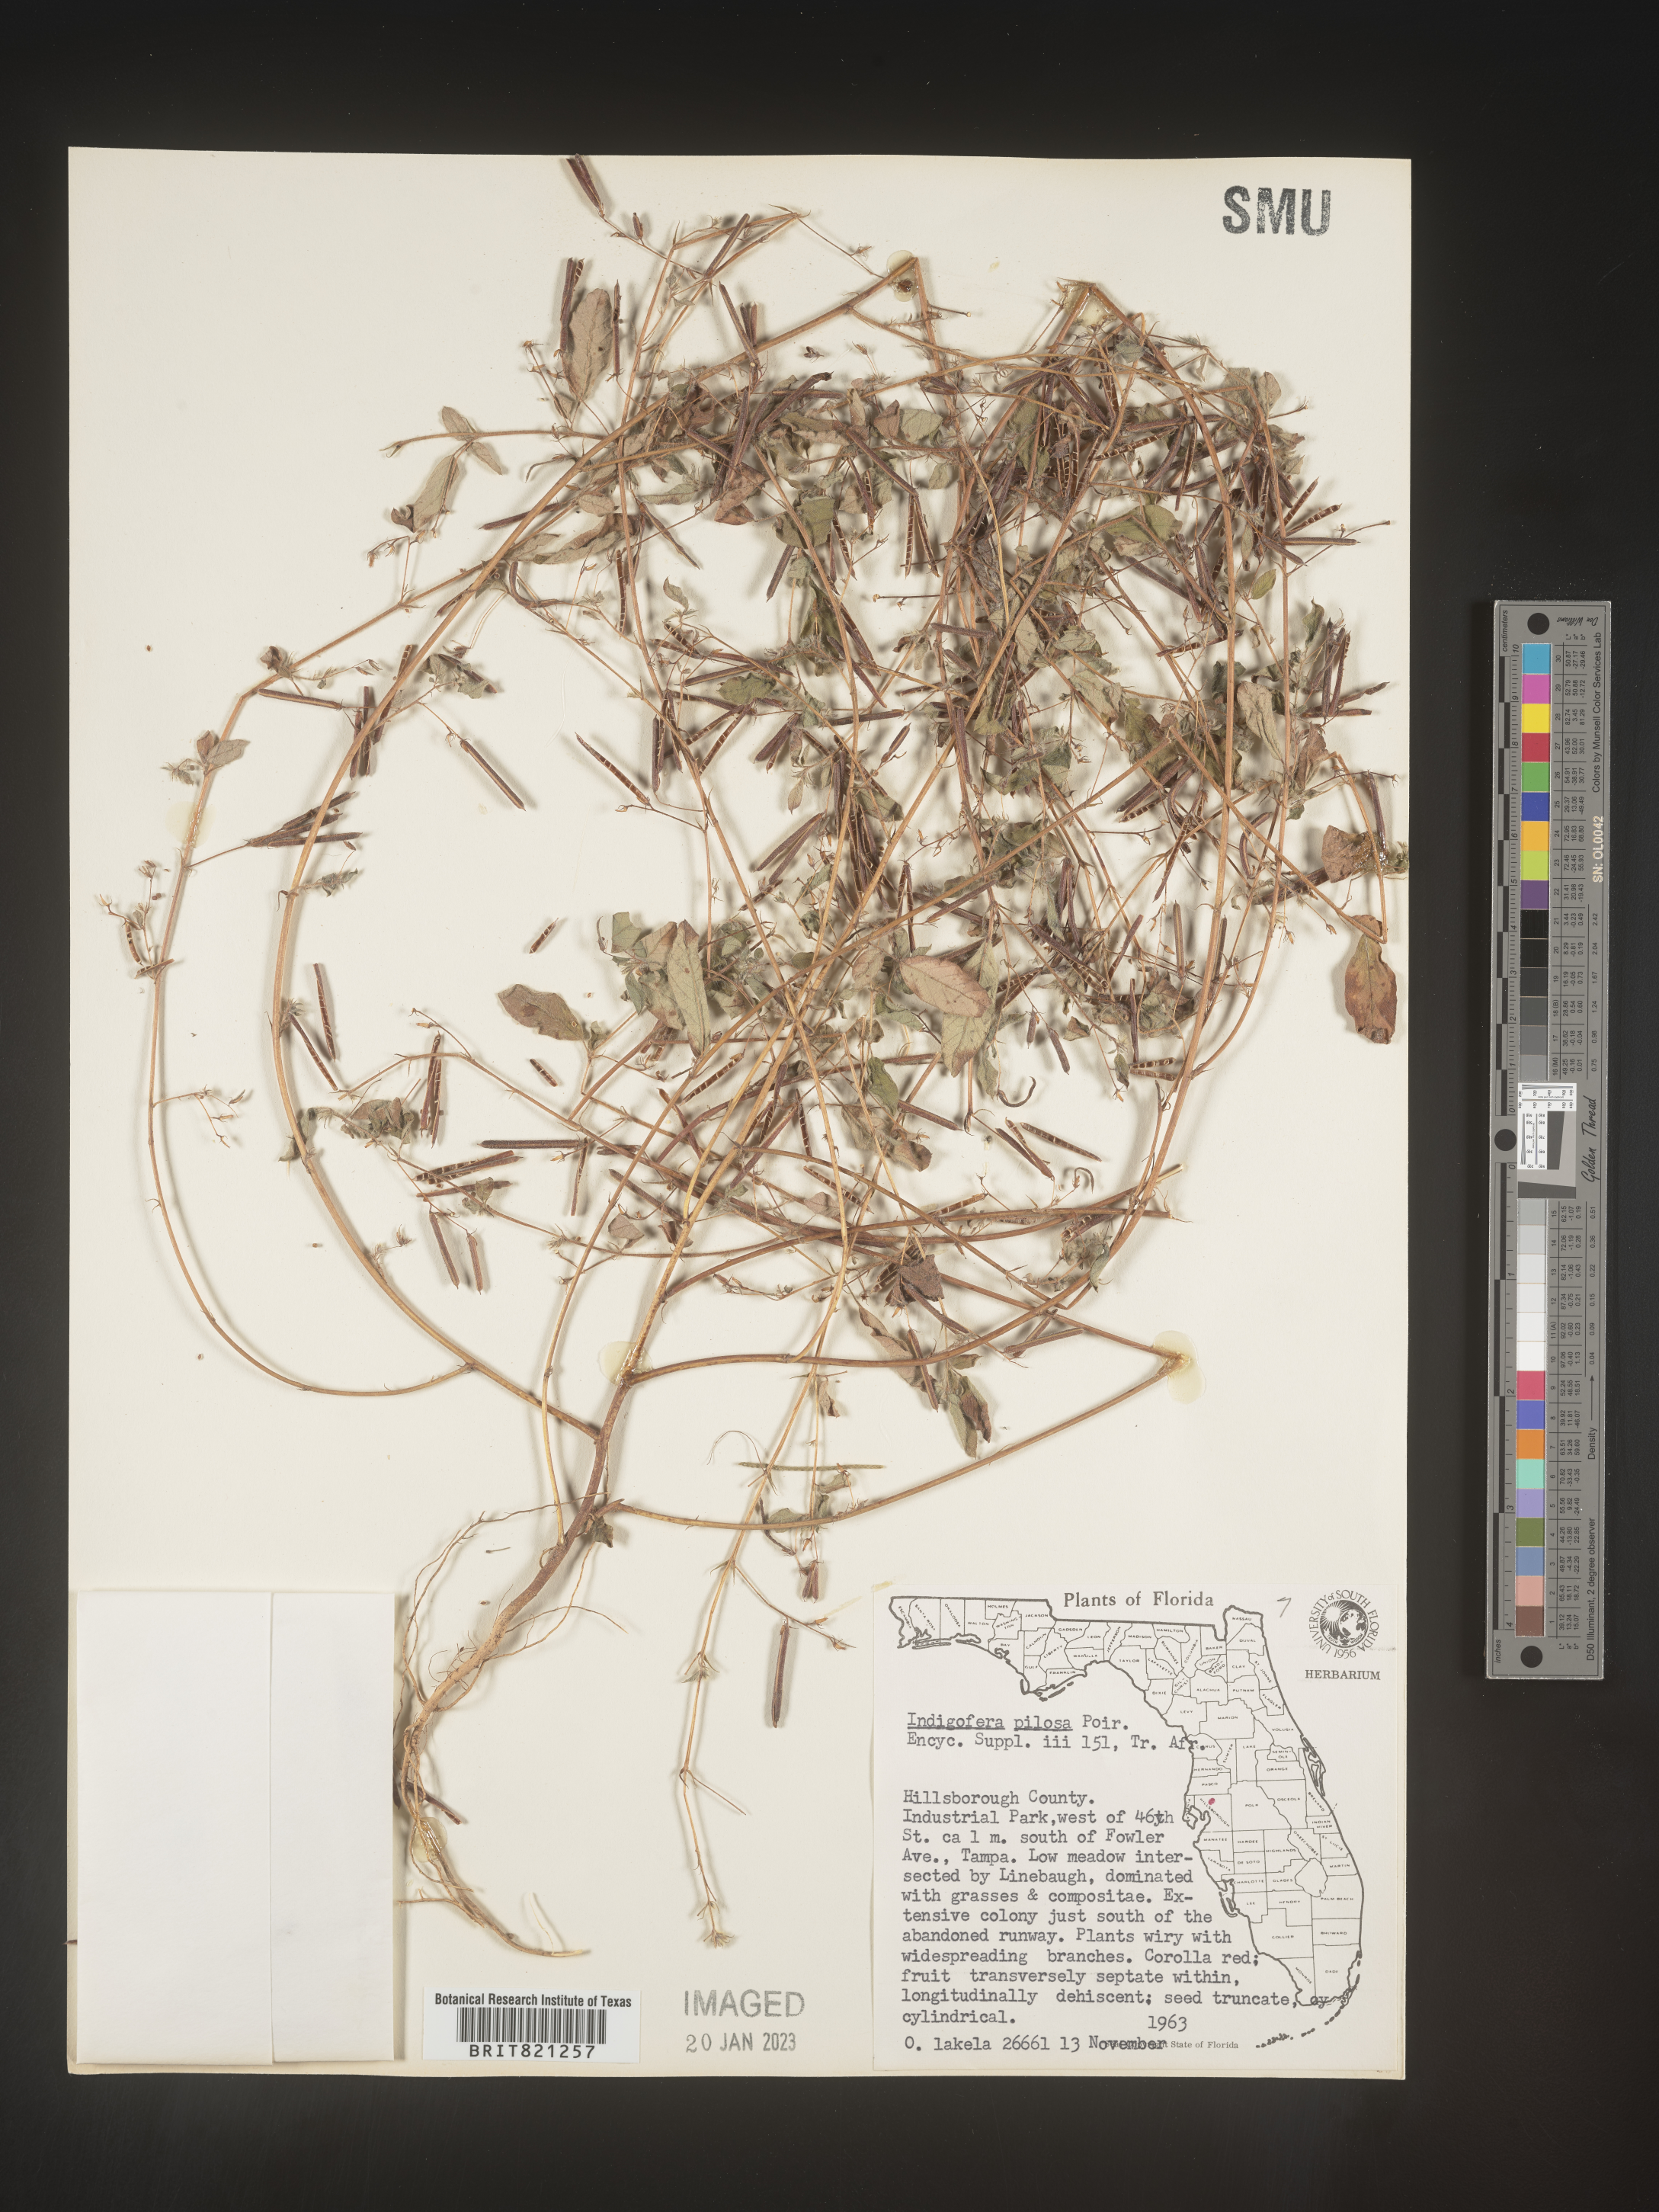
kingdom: Plantae
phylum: Tracheophyta
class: Magnoliopsida
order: Fabales
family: Fabaceae
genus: Indigofera
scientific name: Indigofera pilosa
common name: Softhairy indigo
